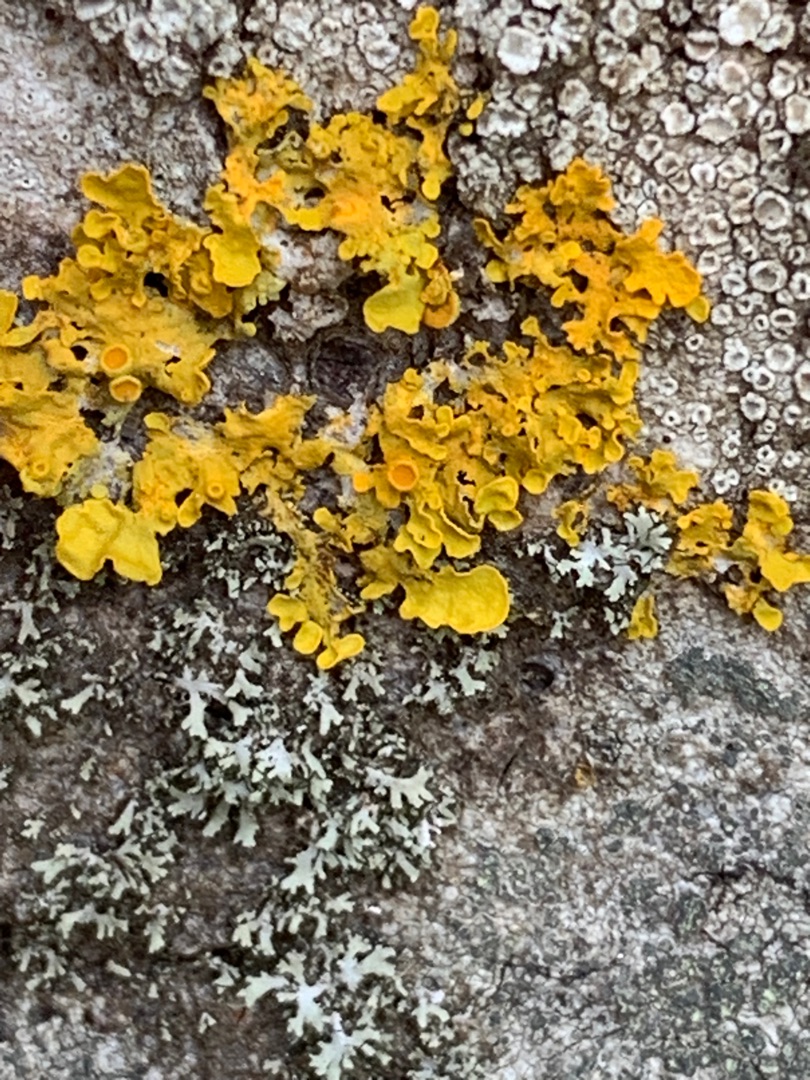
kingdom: Fungi
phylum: Ascomycota
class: Lecanoromycetes
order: Teloschistales
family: Teloschistaceae
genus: Xanthoria
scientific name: Xanthoria parietina
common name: Almindelig væggelav
